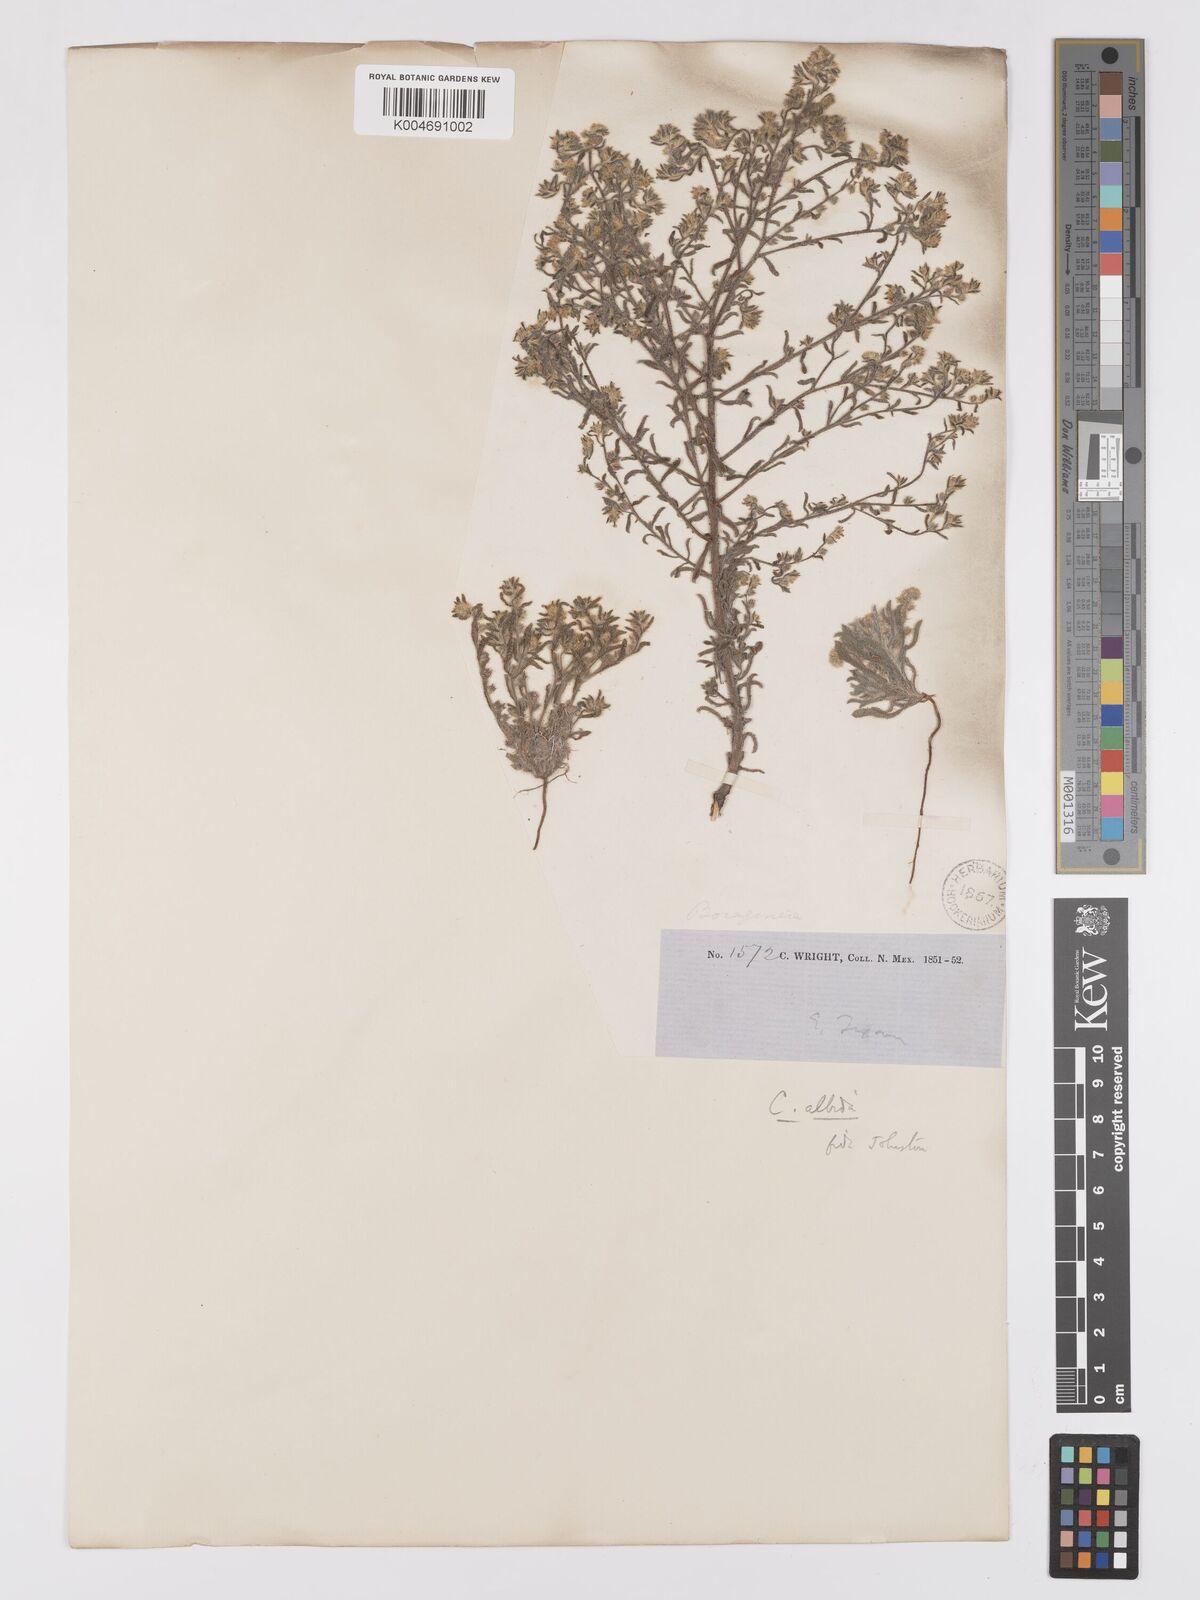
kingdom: Plantae
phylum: Tracheophyta
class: Magnoliopsida
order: Boraginales
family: Boraginaceae
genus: Johnstonella
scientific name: Johnstonella albida
